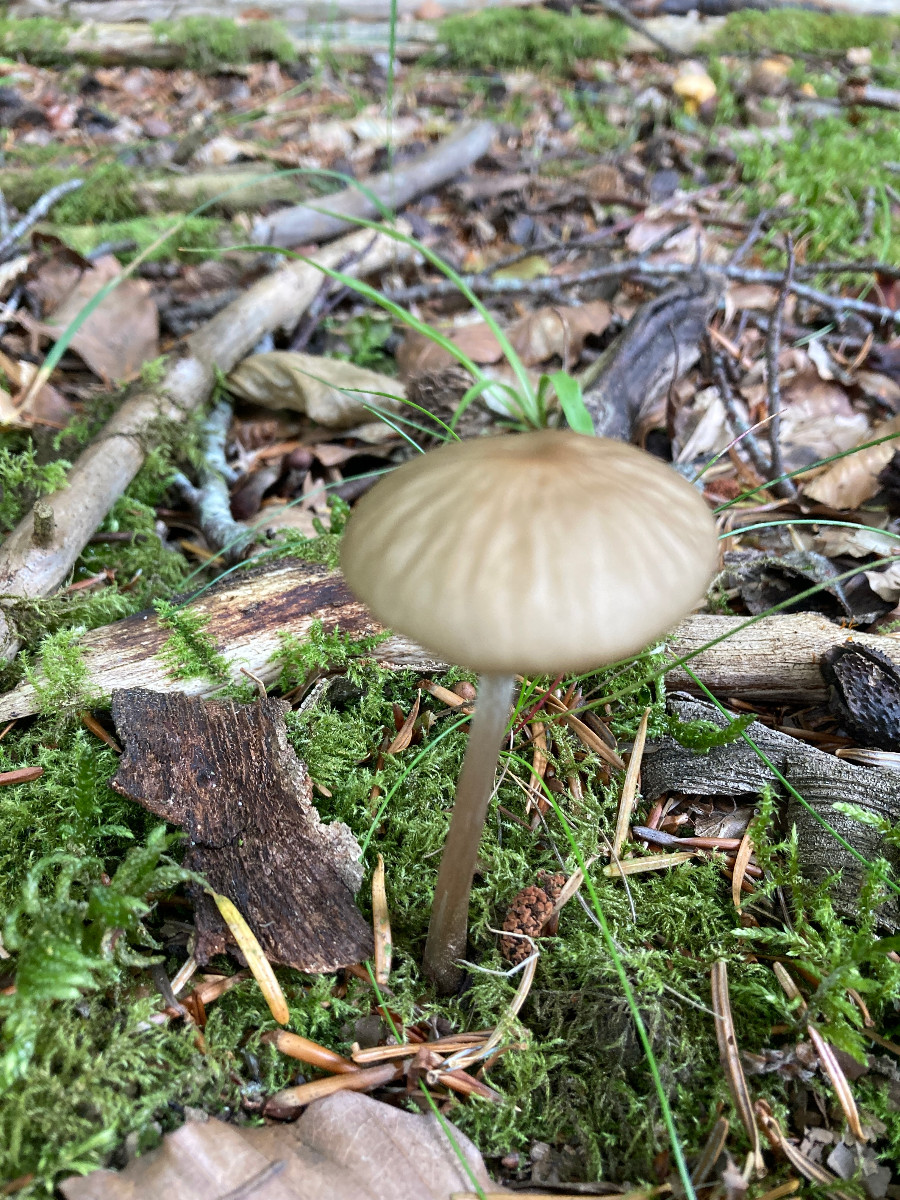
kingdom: Fungi
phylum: Basidiomycota
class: Agaricomycetes
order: Agaricales
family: Physalacriaceae
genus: Hymenopellis
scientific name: Hymenopellis radicata
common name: almindelig pælerodshat
